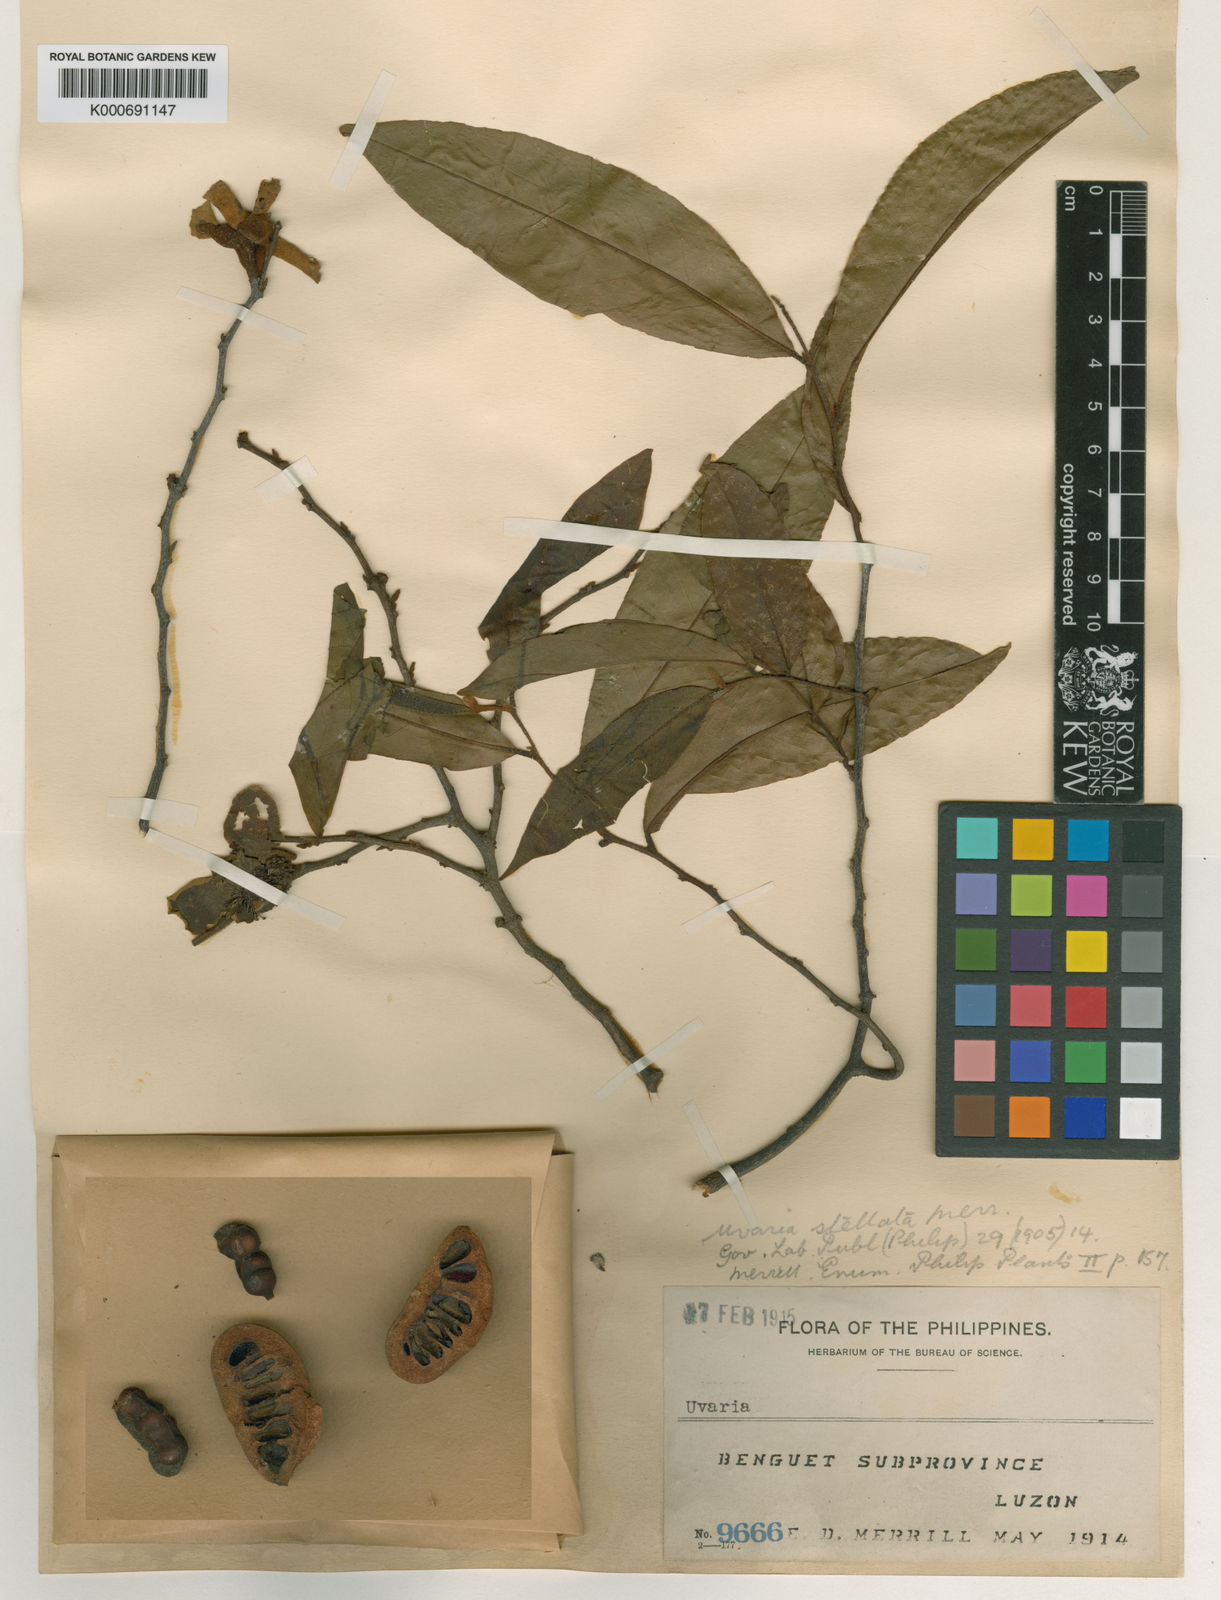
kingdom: Plantae
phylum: Tracheophyta
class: Magnoliopsida
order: Magnoliales
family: Annonaceae
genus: Uvaria
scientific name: Uvaria stellata
